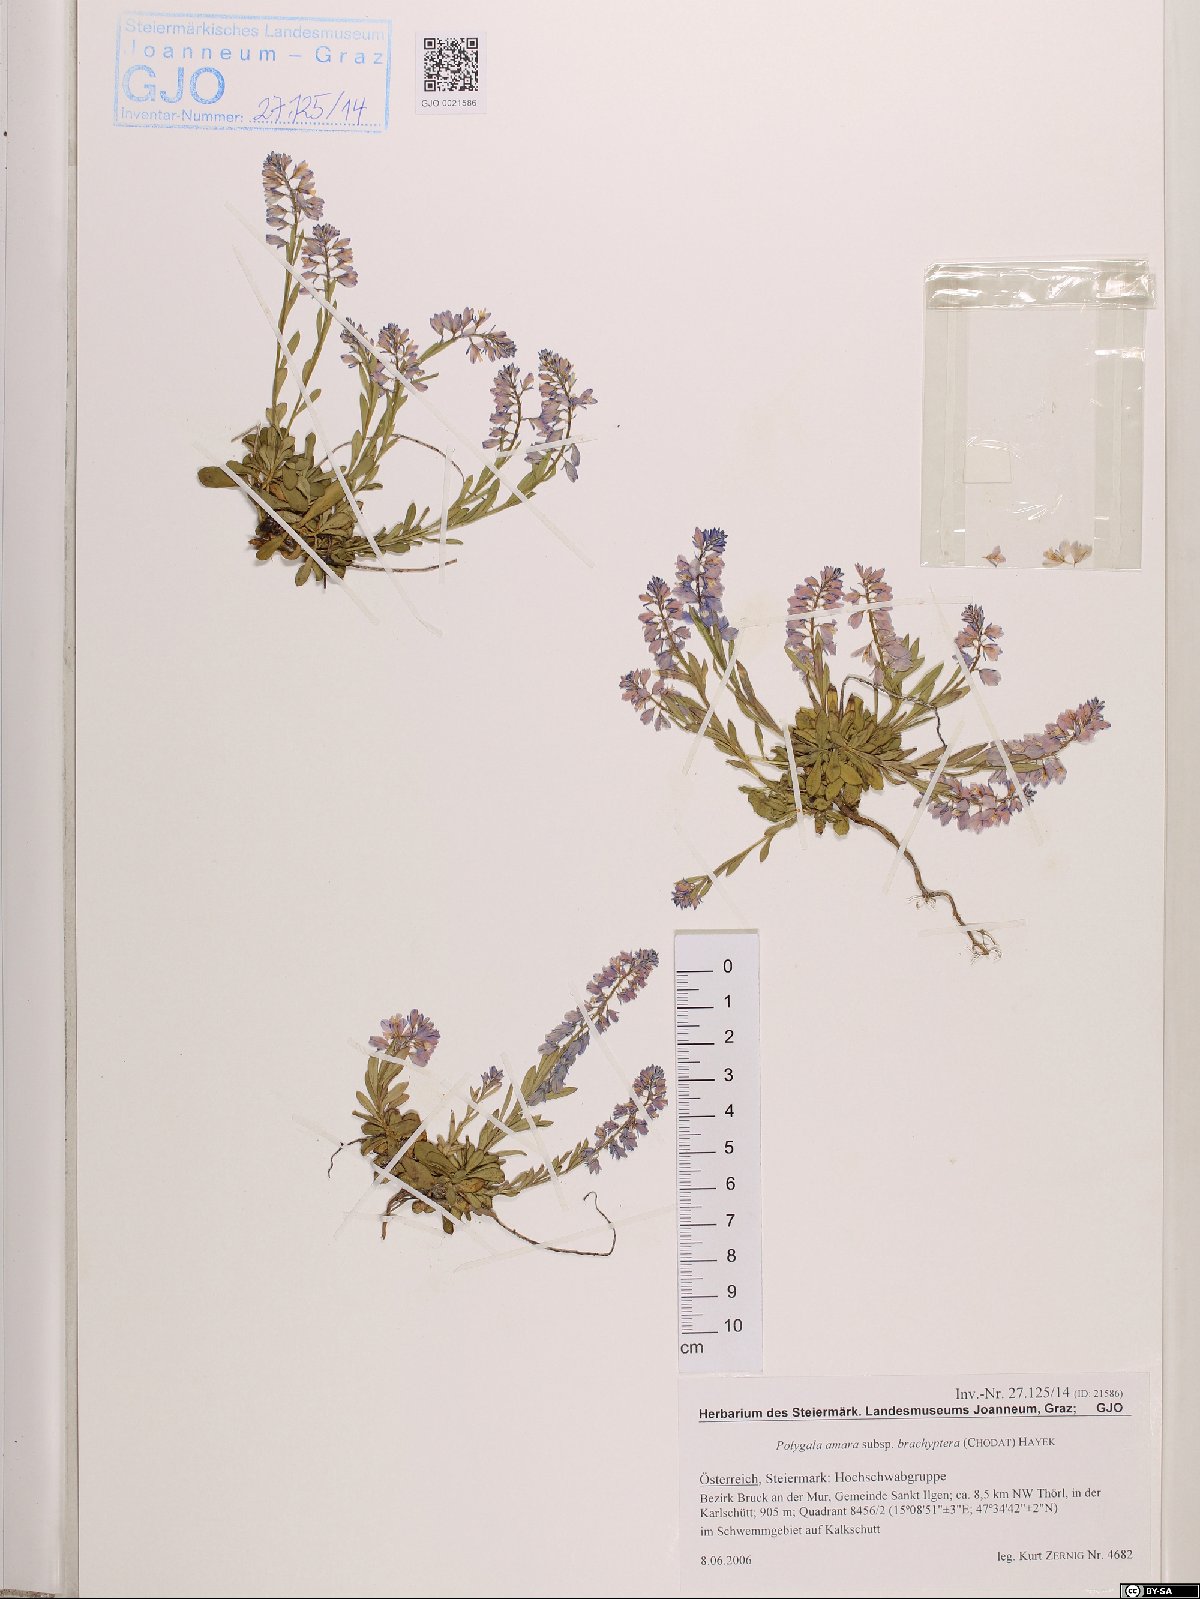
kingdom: Plantae
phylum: Tracheophyta
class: Magnoliopsida
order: Fabales
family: Polygalaceae
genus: Polygala
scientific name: Polygala amara
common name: Milkwort
